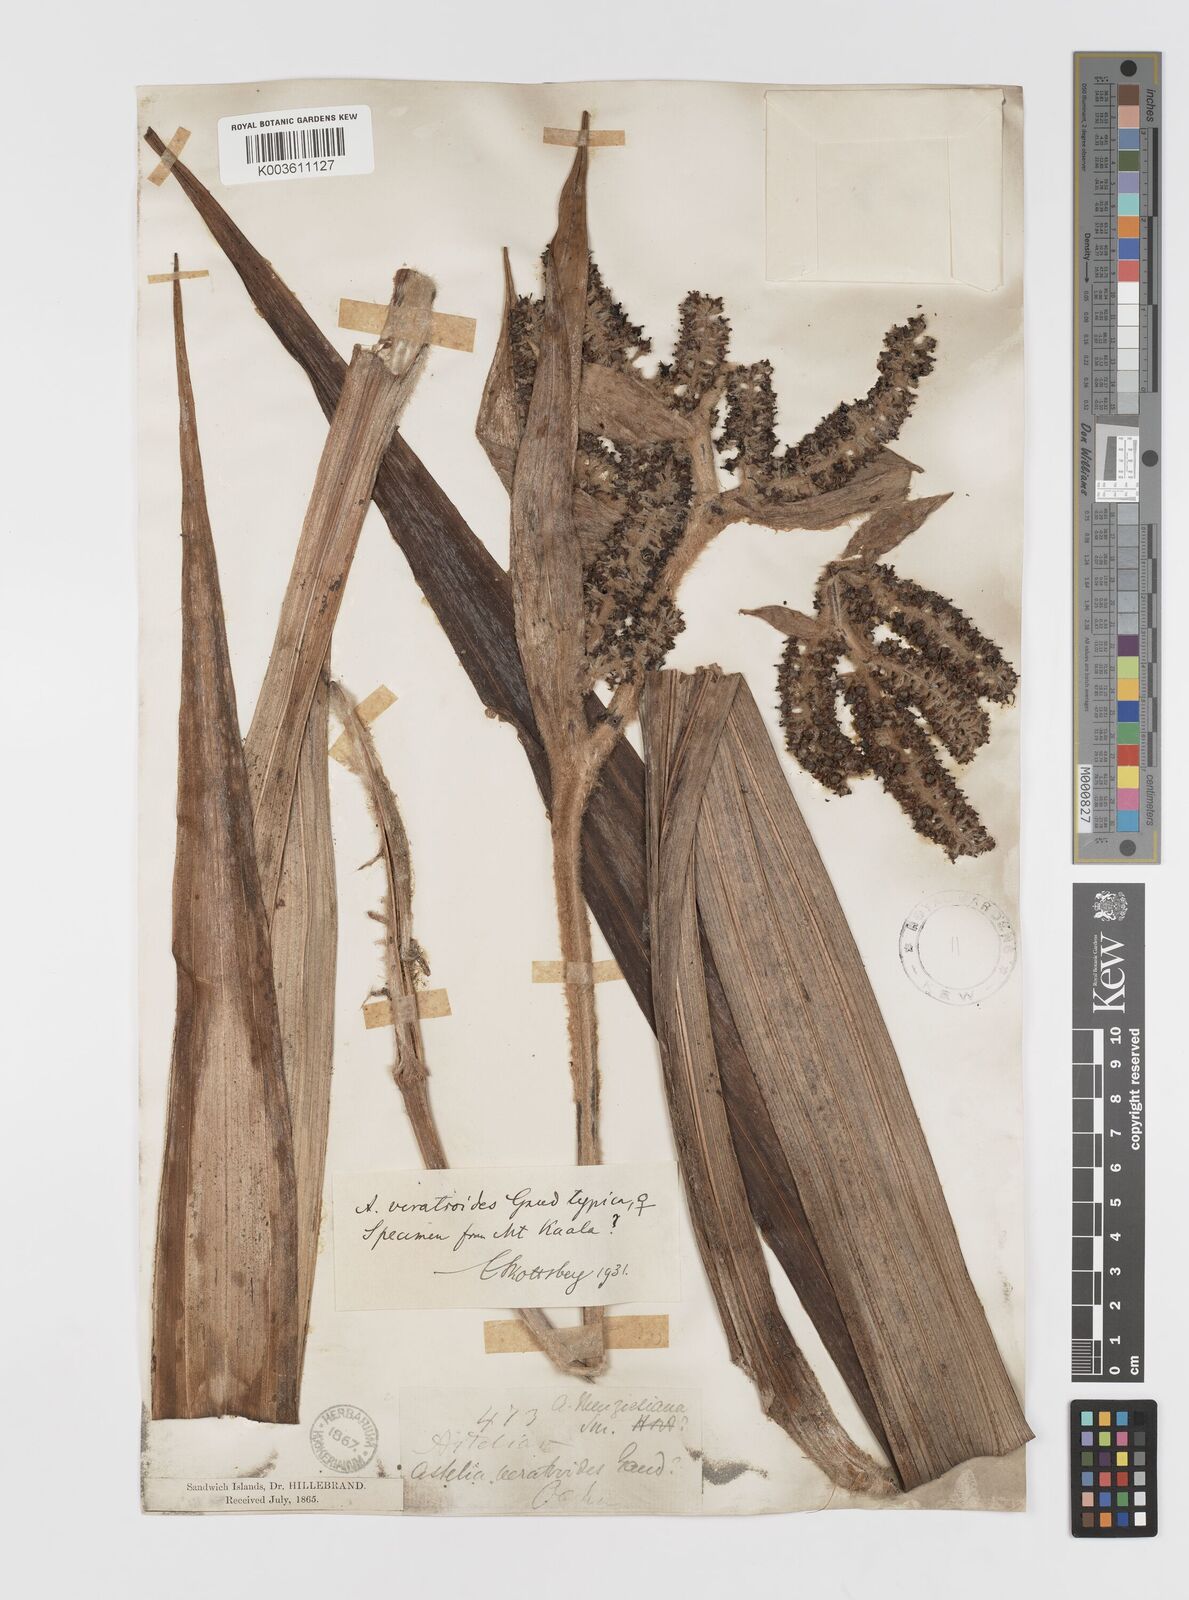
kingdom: Plantae
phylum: Tracheophyta
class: Liliopsida
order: Asparagales
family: Asteliaceae
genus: Astelia
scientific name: Astelia menziesiana
